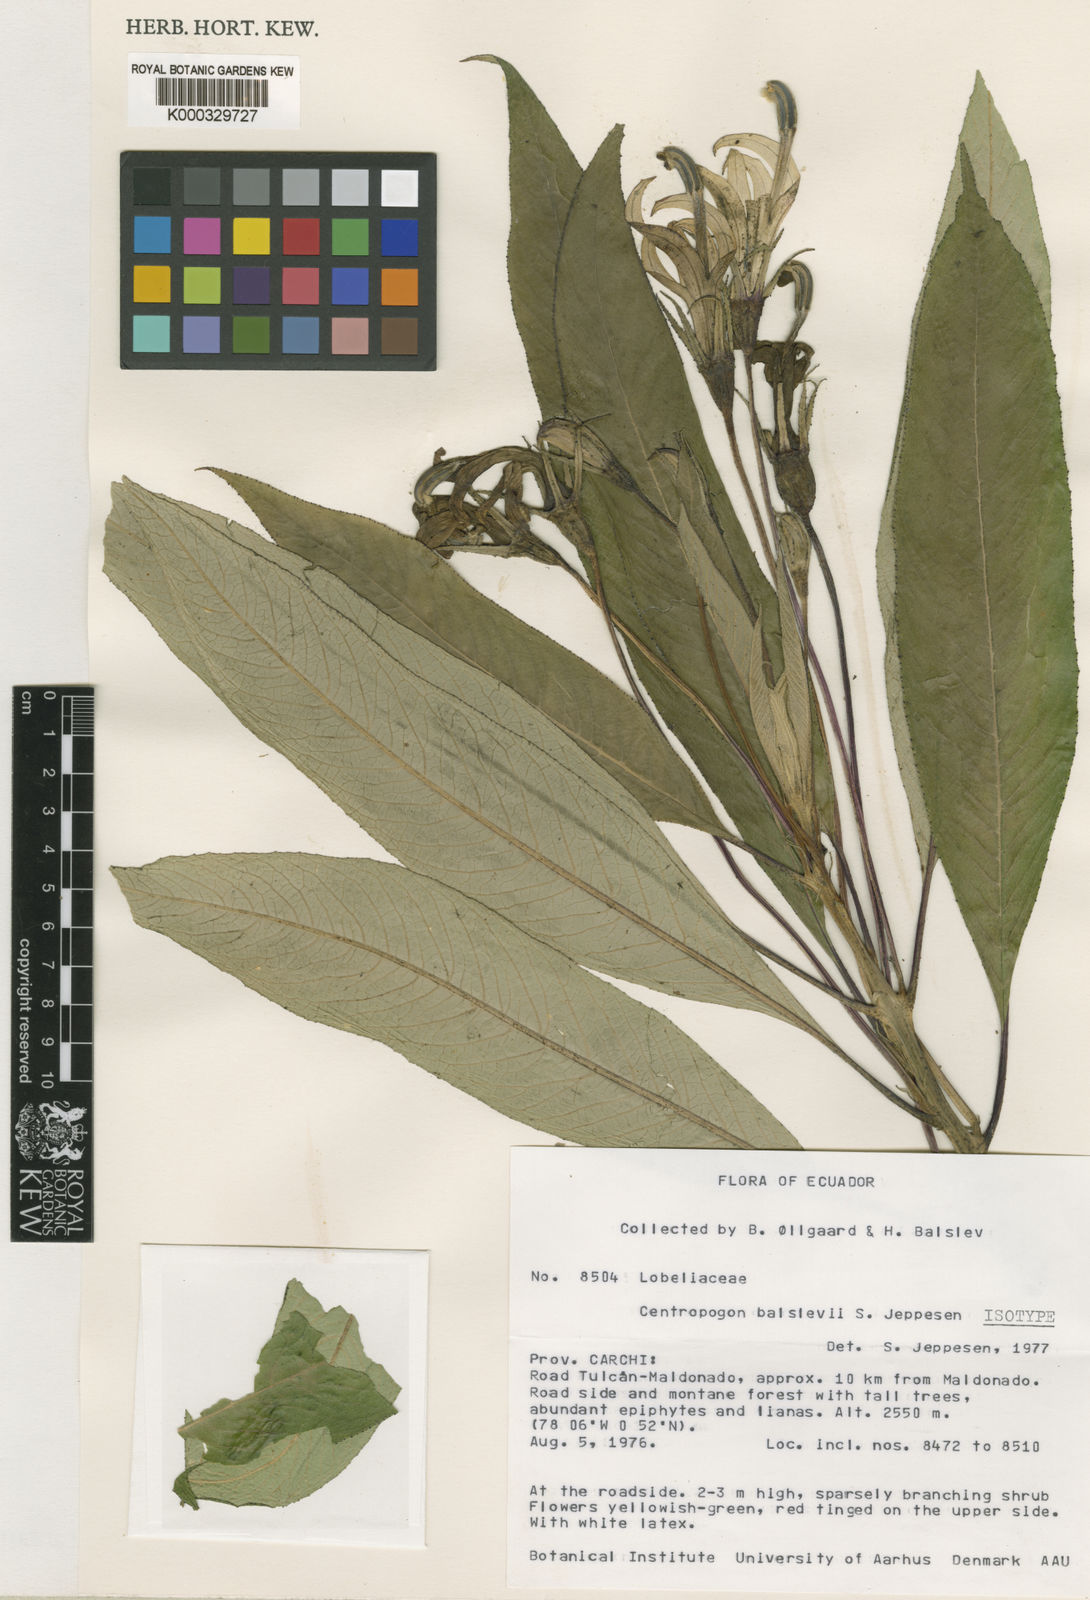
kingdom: Plantae
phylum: Tracheophyta
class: Magnoliopsida
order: Asterales
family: Campanulaceae
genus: Centropogon
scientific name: Centropogon balslevii
